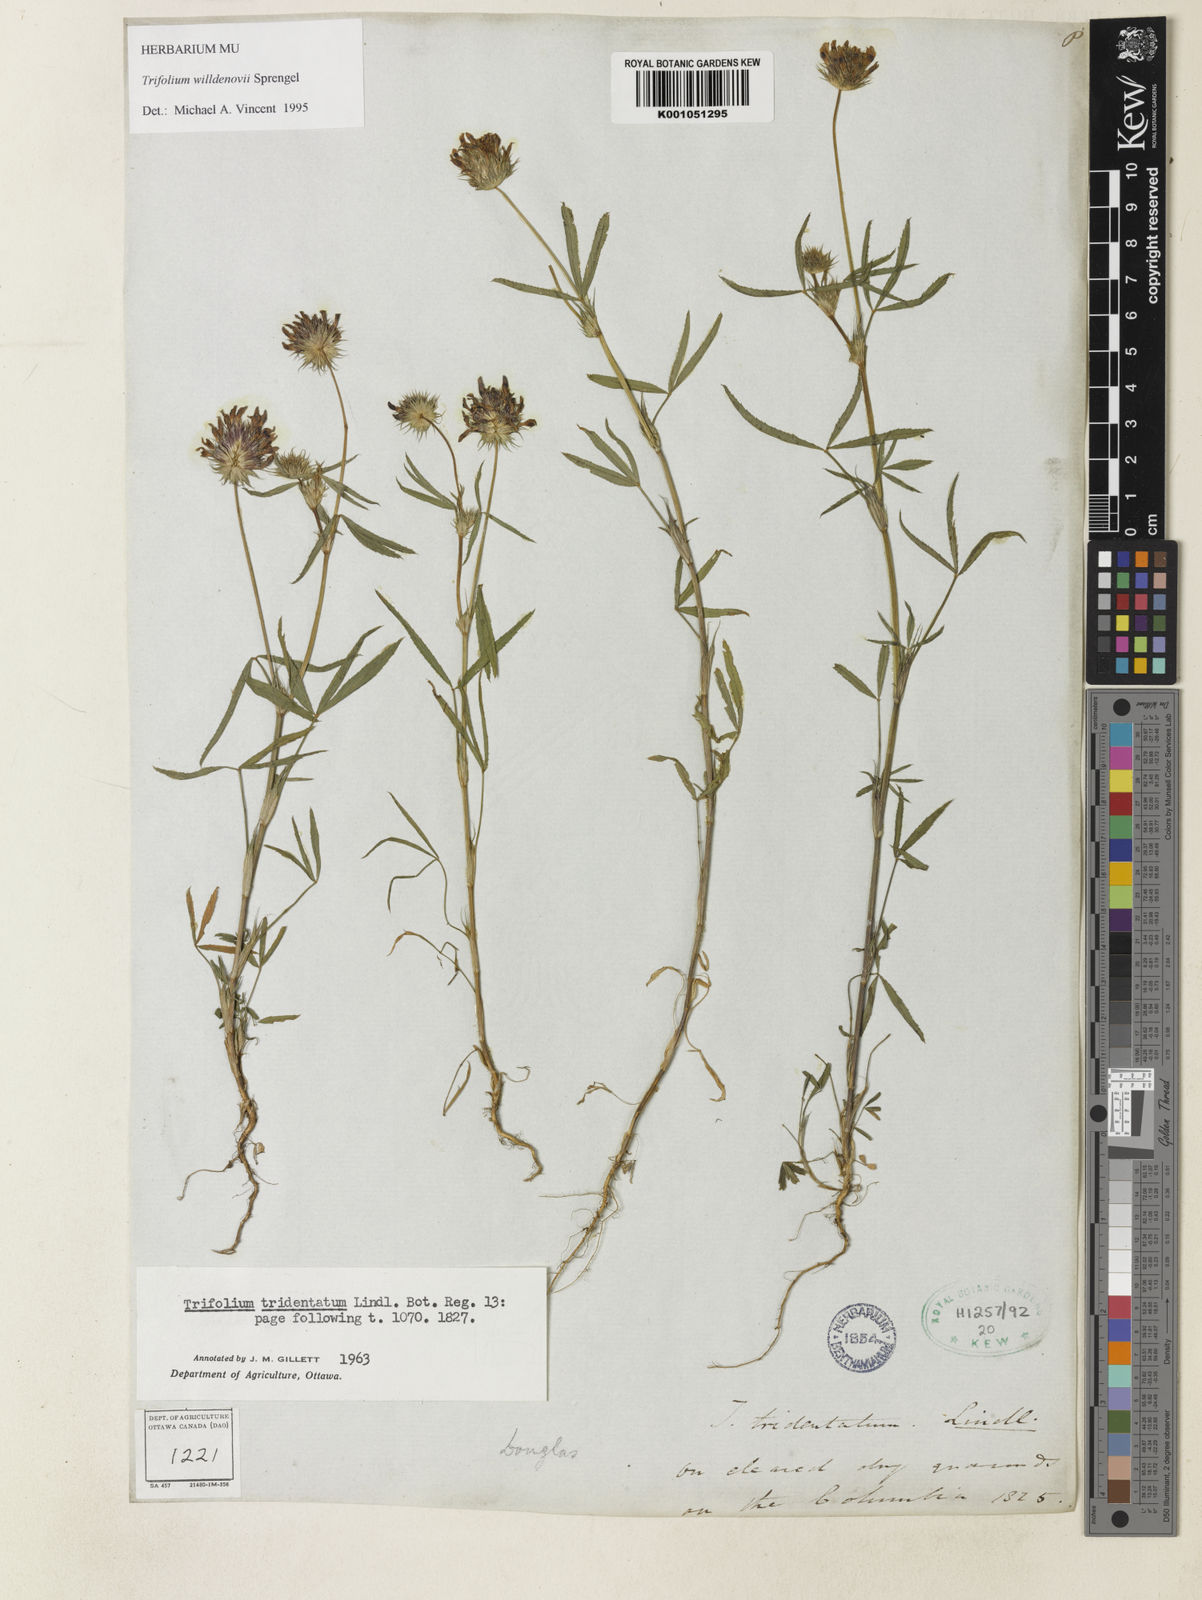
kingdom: Plantae
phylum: Tracheophyta
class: Magnoliopsida
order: Fabales
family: Fabaceae
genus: Trifolium
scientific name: Trifolium willdenovii
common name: Tomcat clover
